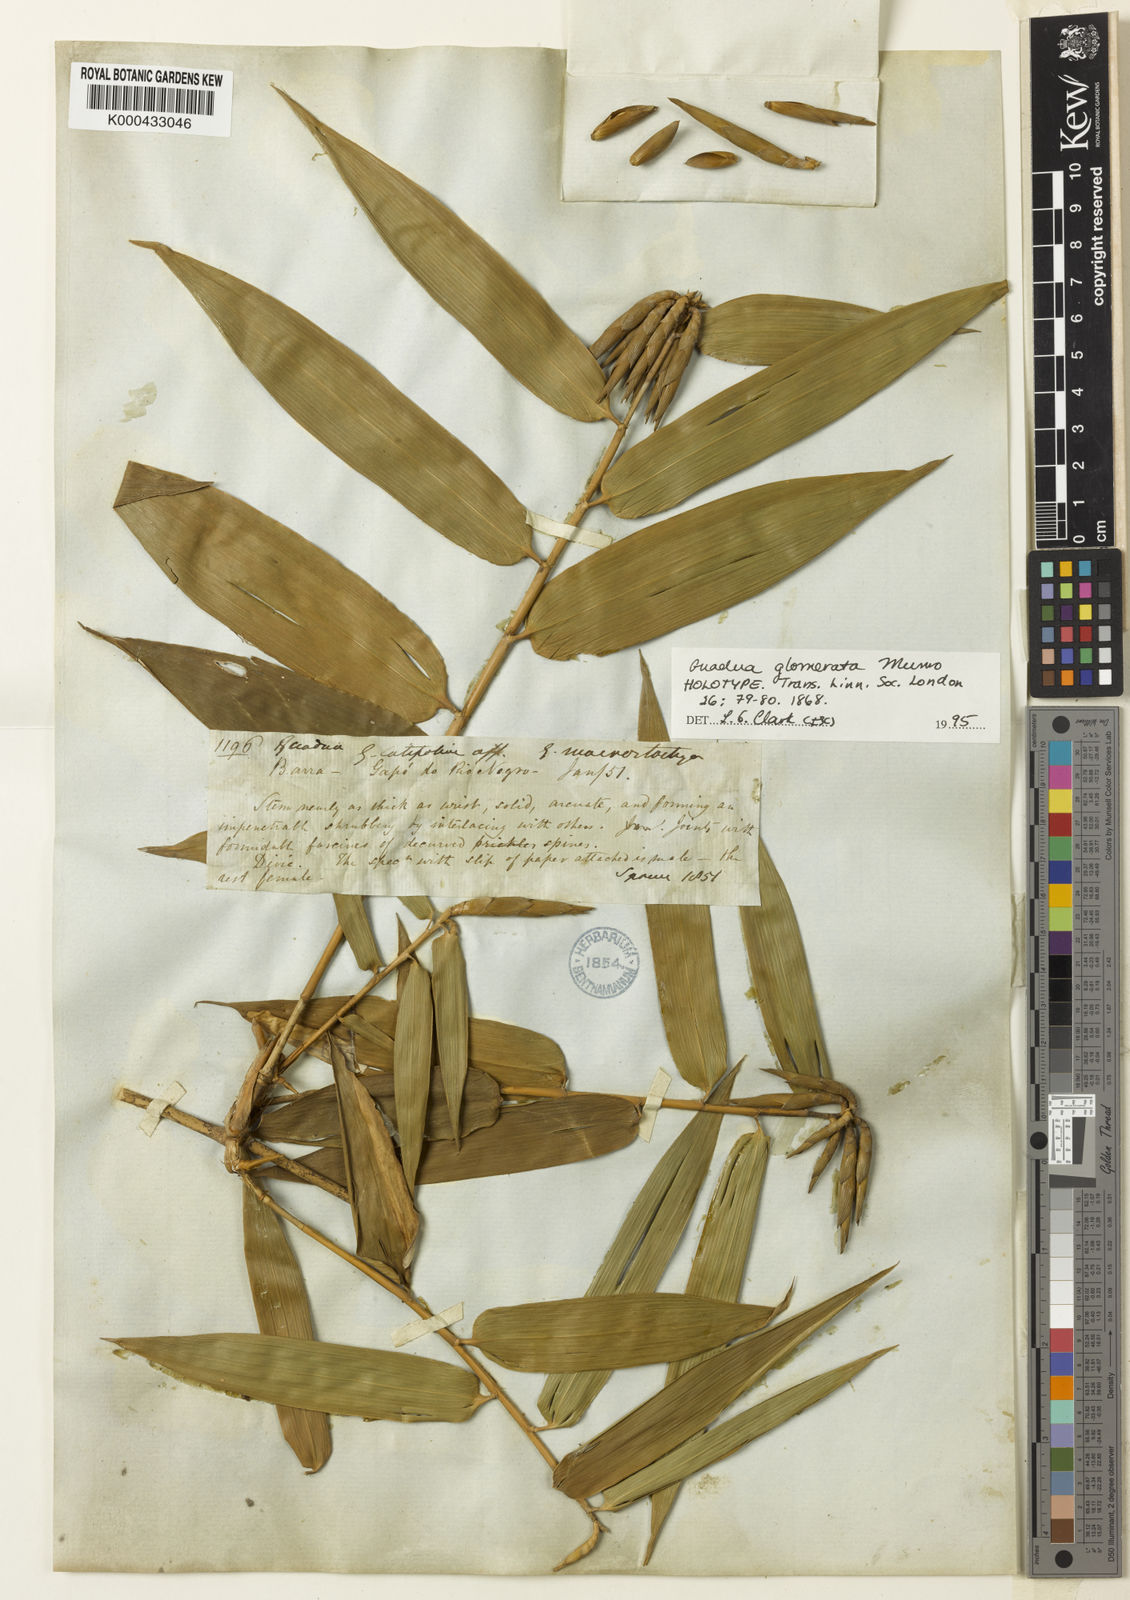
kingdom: Plantae
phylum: Tracheophyta
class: Liliopsida
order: Poales
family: Poaceae
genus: Guadua
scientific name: Guadua glomerata
